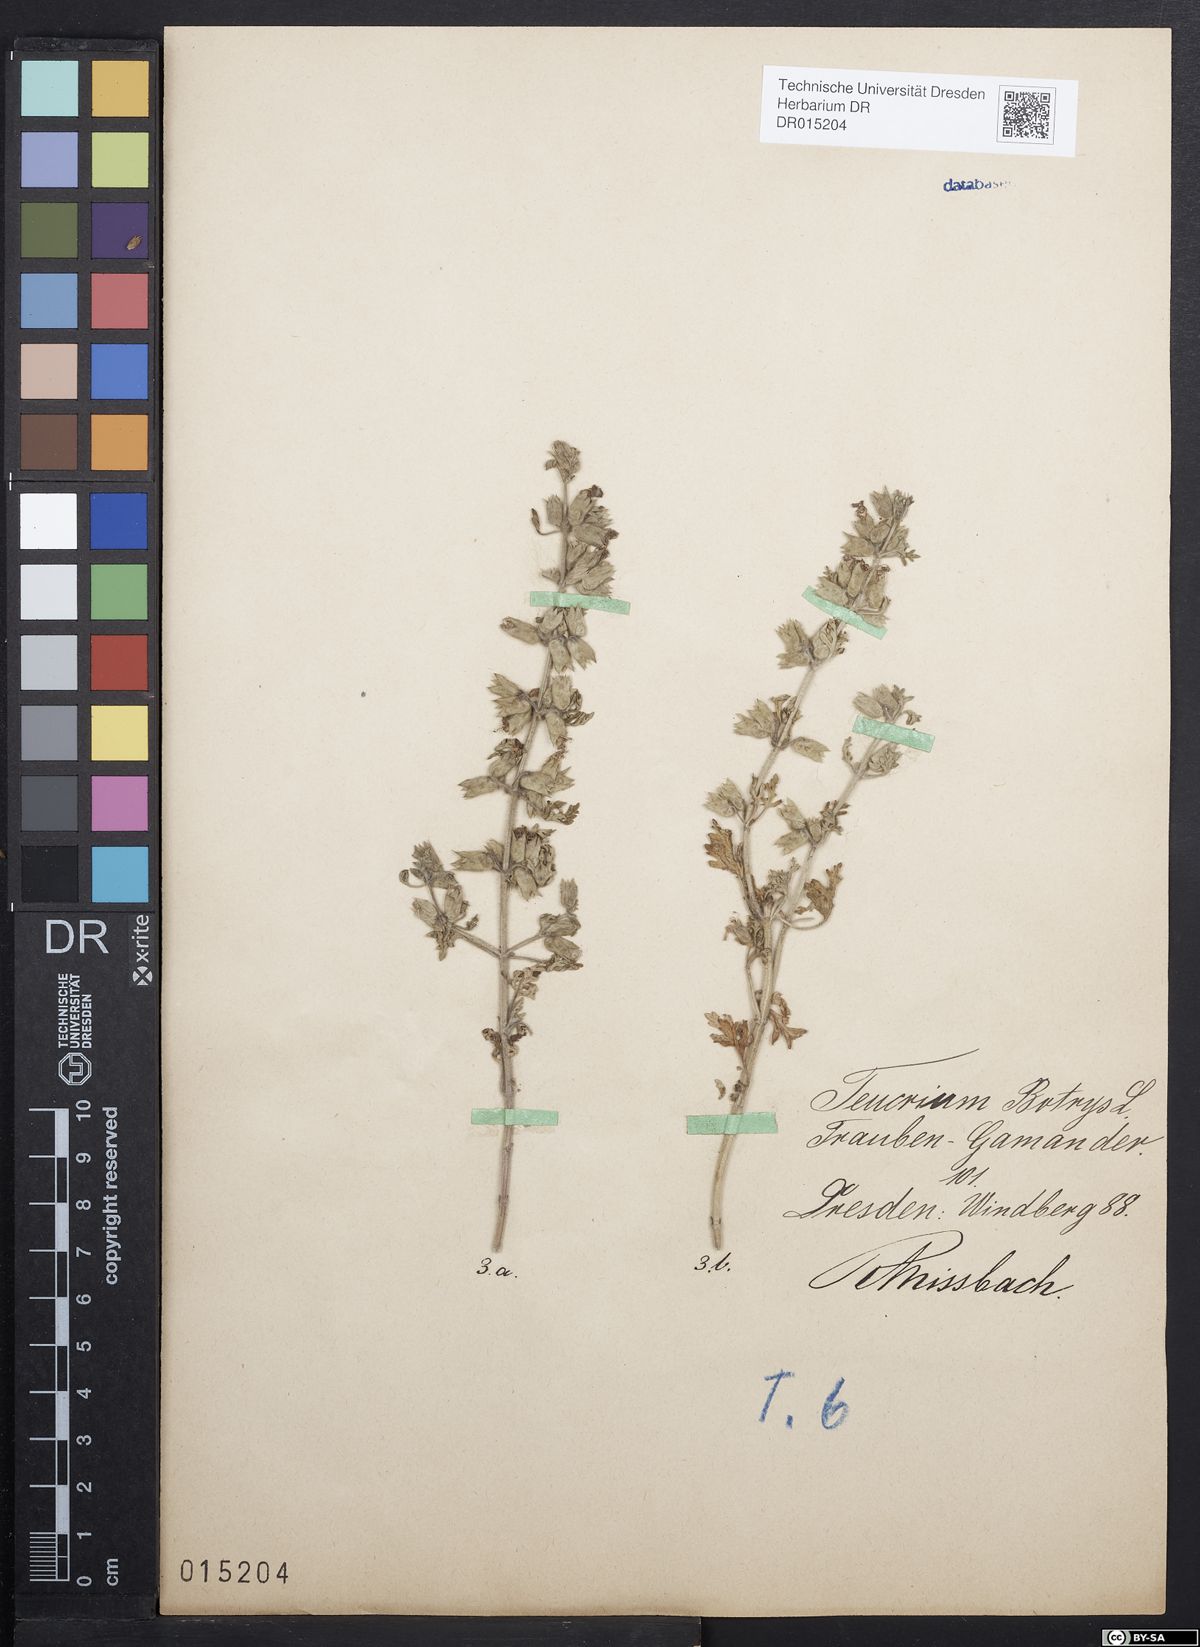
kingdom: Plantae
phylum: Tracheophyta
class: Magnoliopsida
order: Lamiales
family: Lamiaceae
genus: Teucrium
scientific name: Teucrium botrys
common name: Cut-leaved germander
